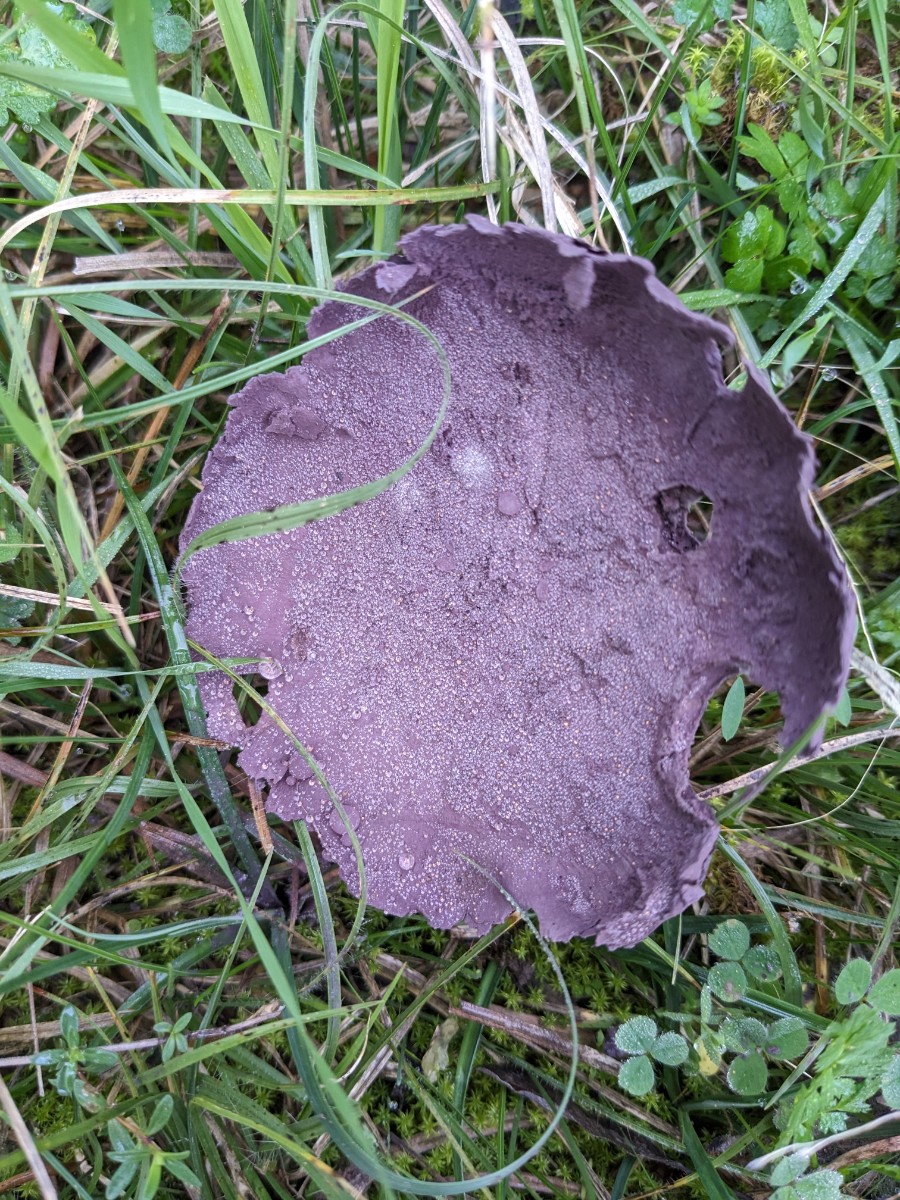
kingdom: Fungi
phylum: Basidiomycota
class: Agaricomycetes
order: Agaricales
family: Lycoperdaceae
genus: Calvatia
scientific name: Calvatia cyathiformis
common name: Purple-spored puffball
